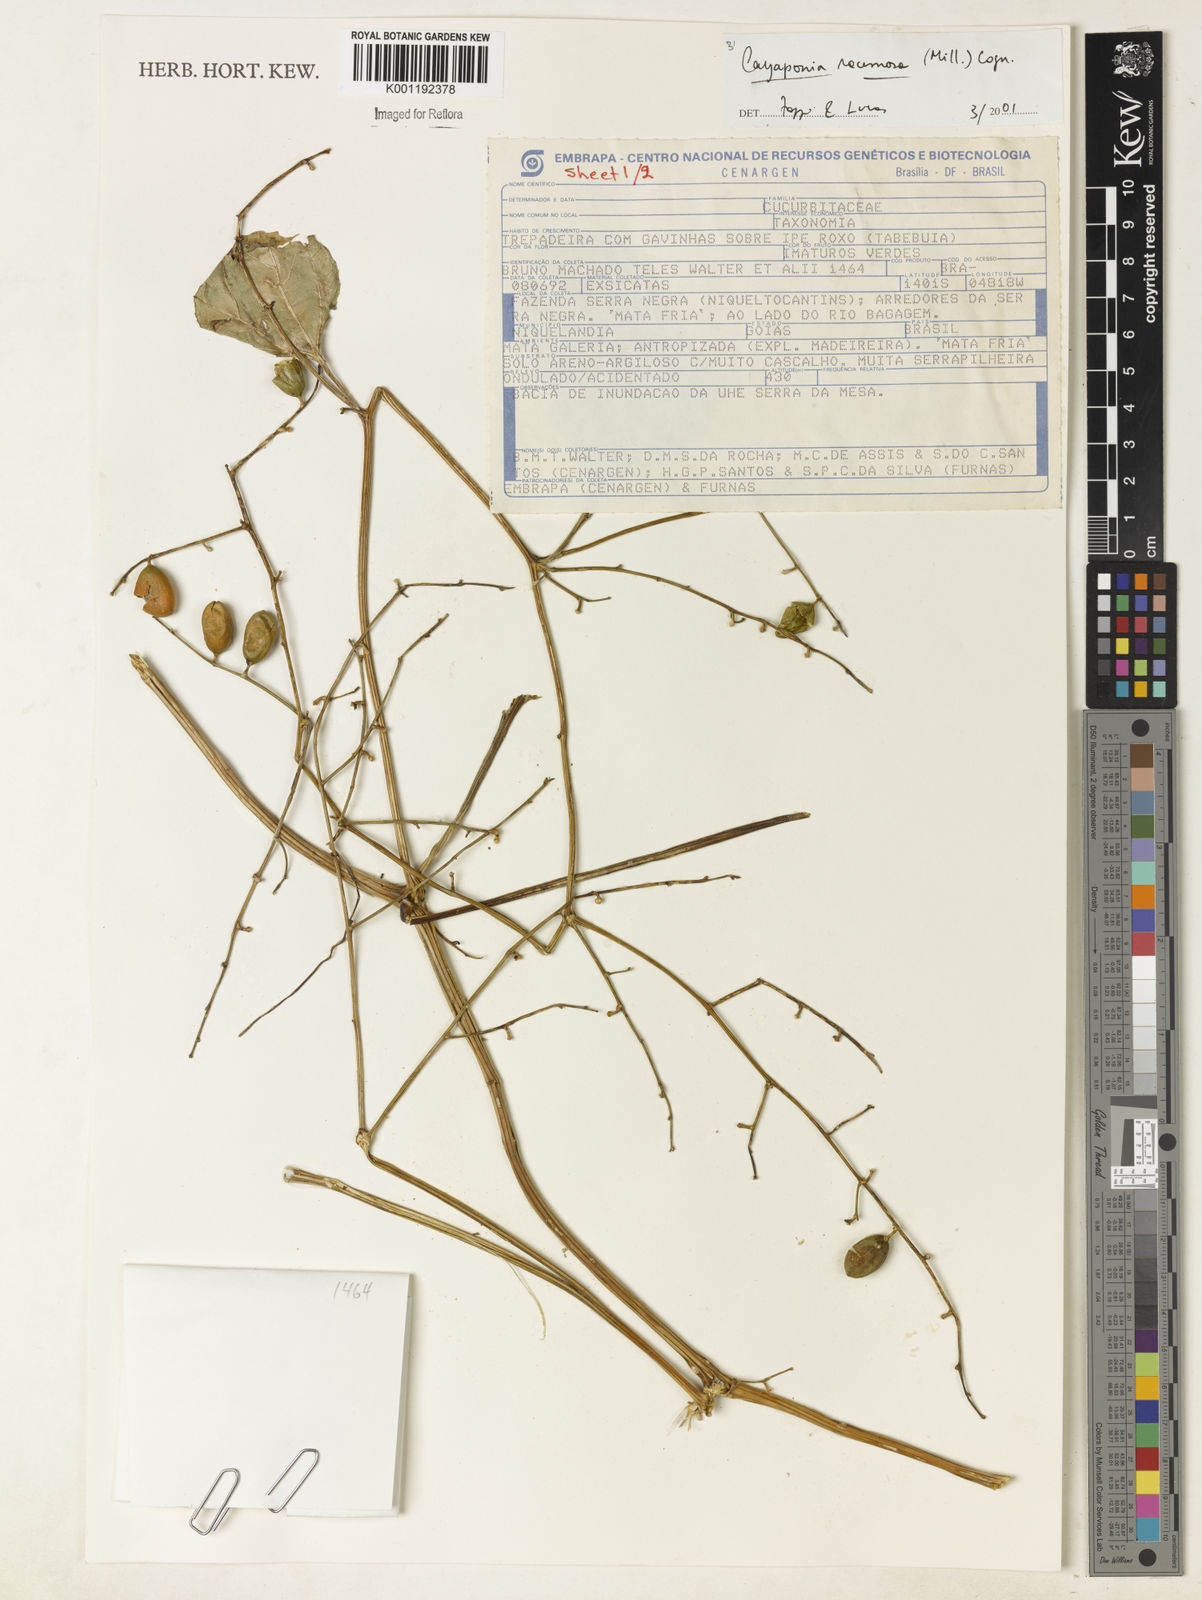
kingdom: Plantae
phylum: Tracheophyta
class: Magnoliopsida
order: Cucurbitales
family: Cucurbitaceae
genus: Cayaponia
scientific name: Cayaponia racemosa
